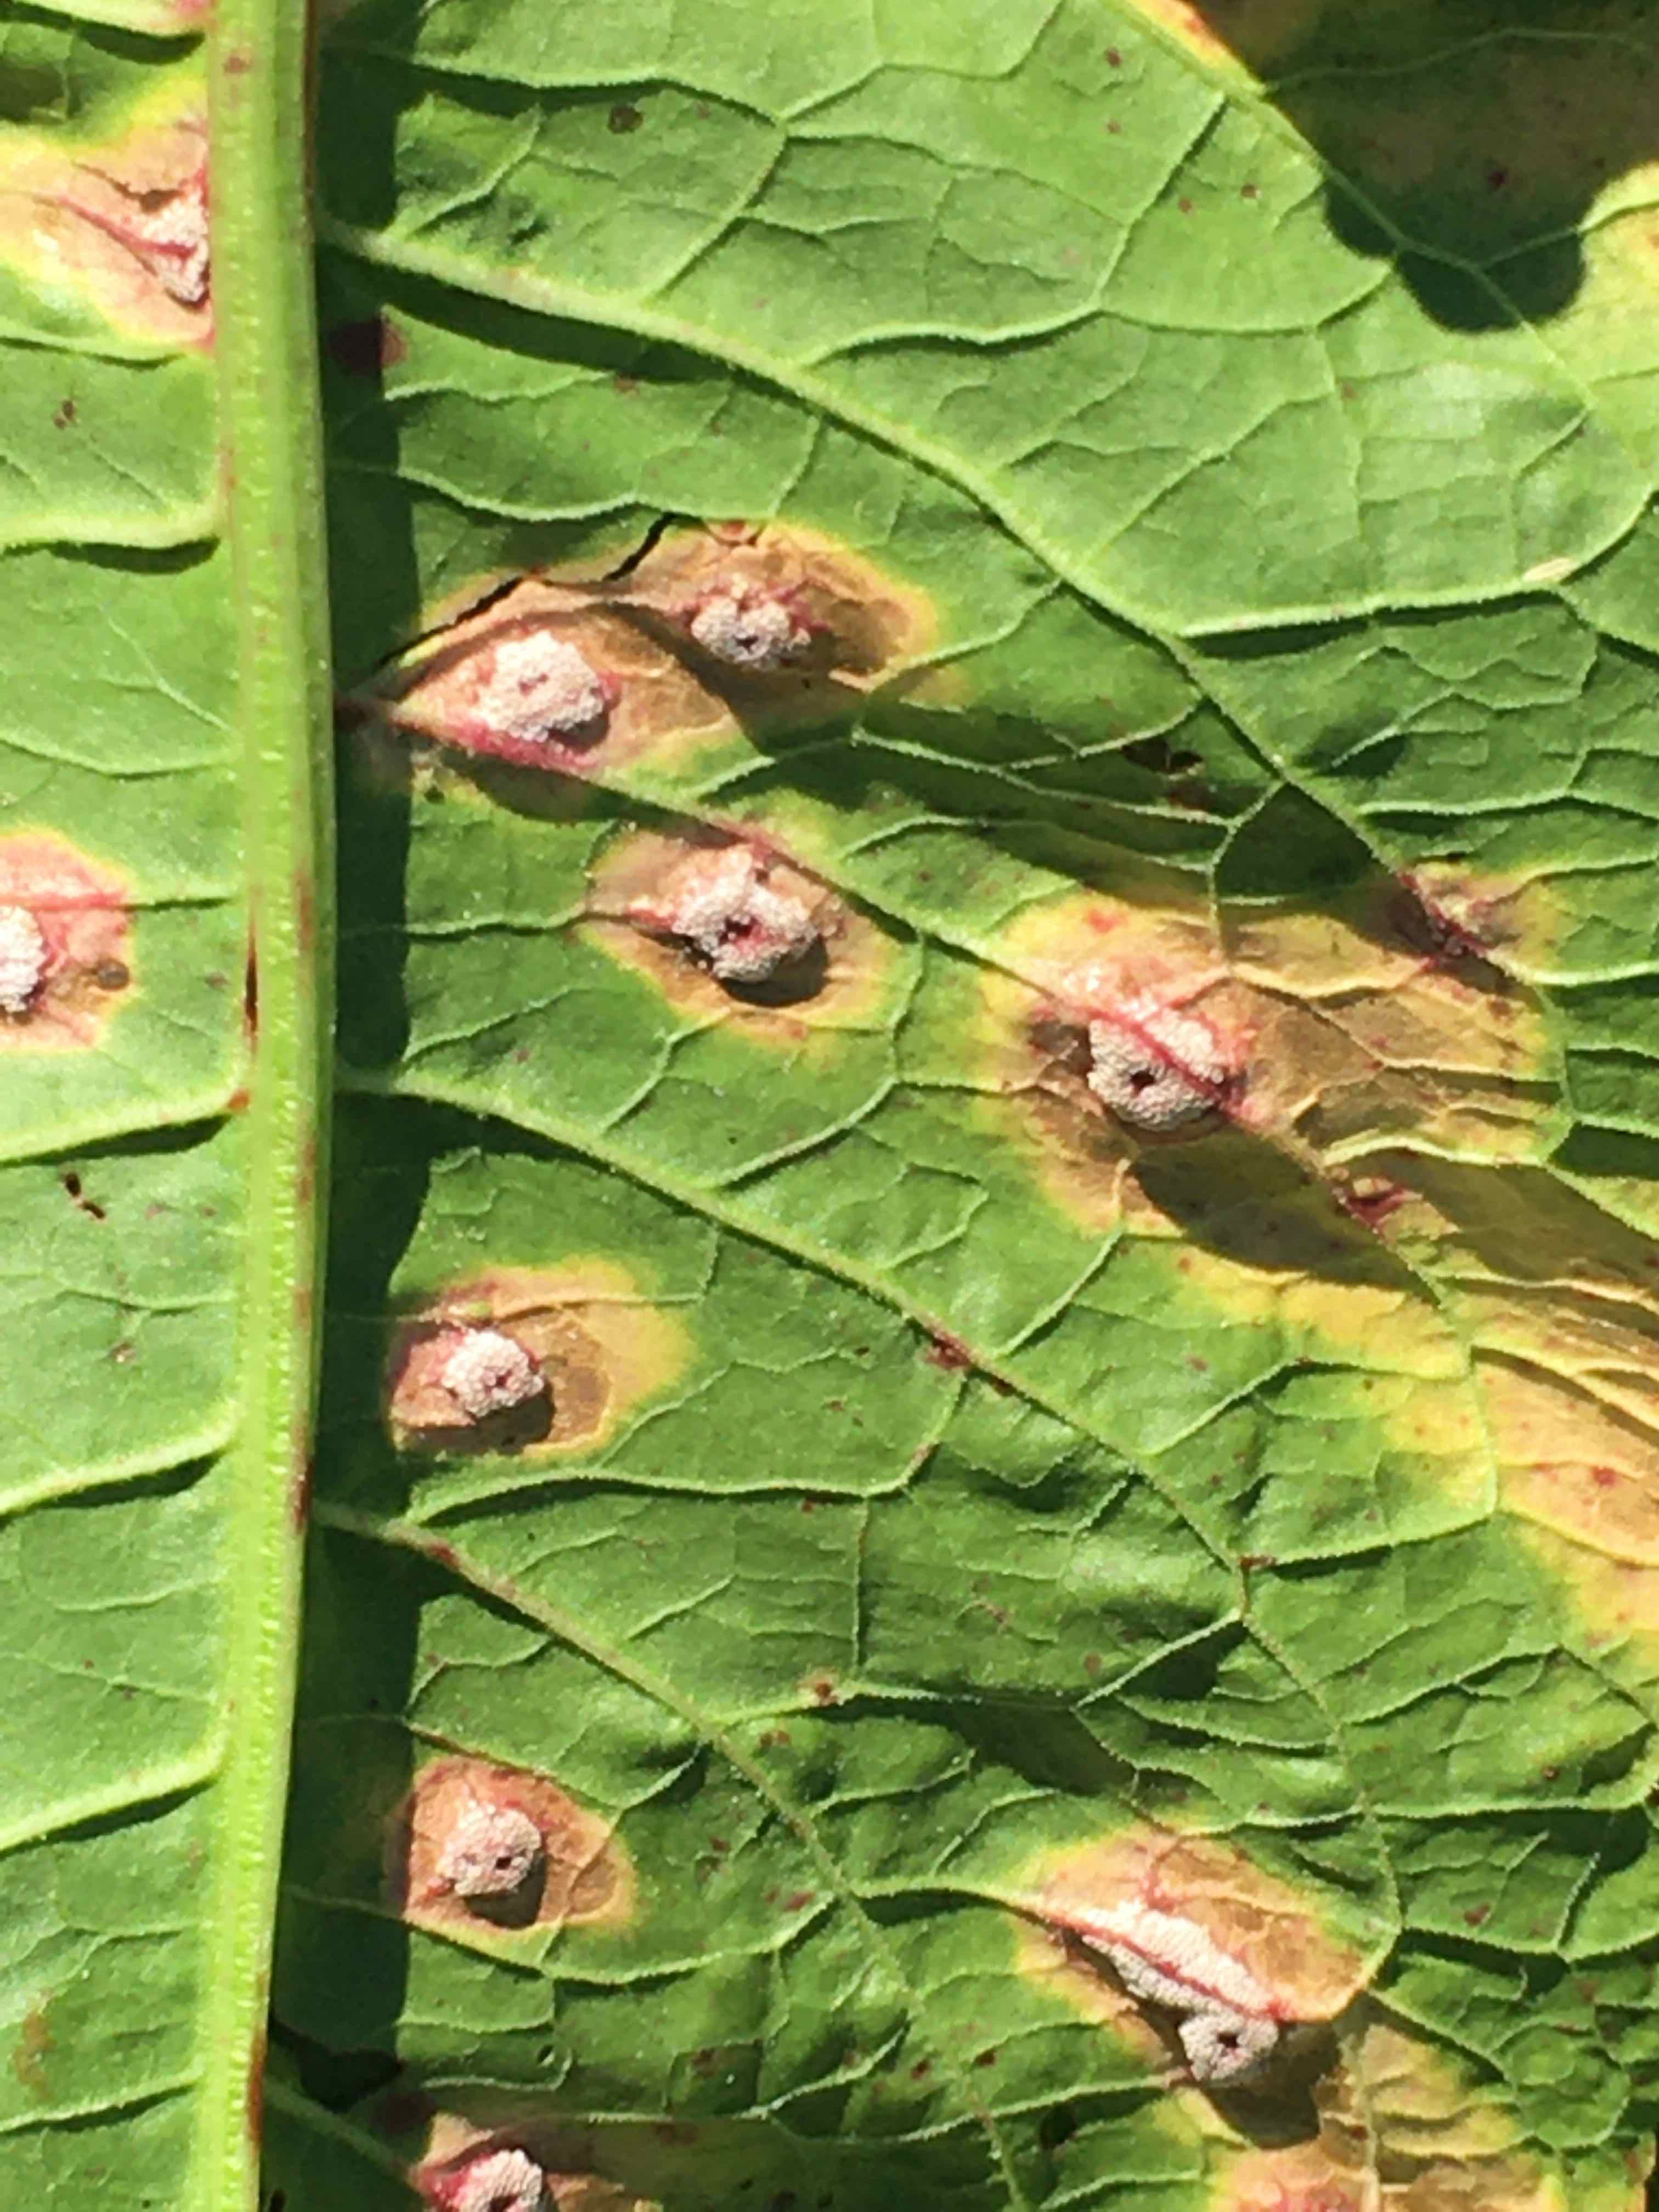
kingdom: Fungi
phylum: Basidiomycota
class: Pucciniomycetes
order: Pucciniales
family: Pucciniaceae
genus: Puccinia
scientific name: Puccinia phragmitis
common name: tagrør-tvecellerust
